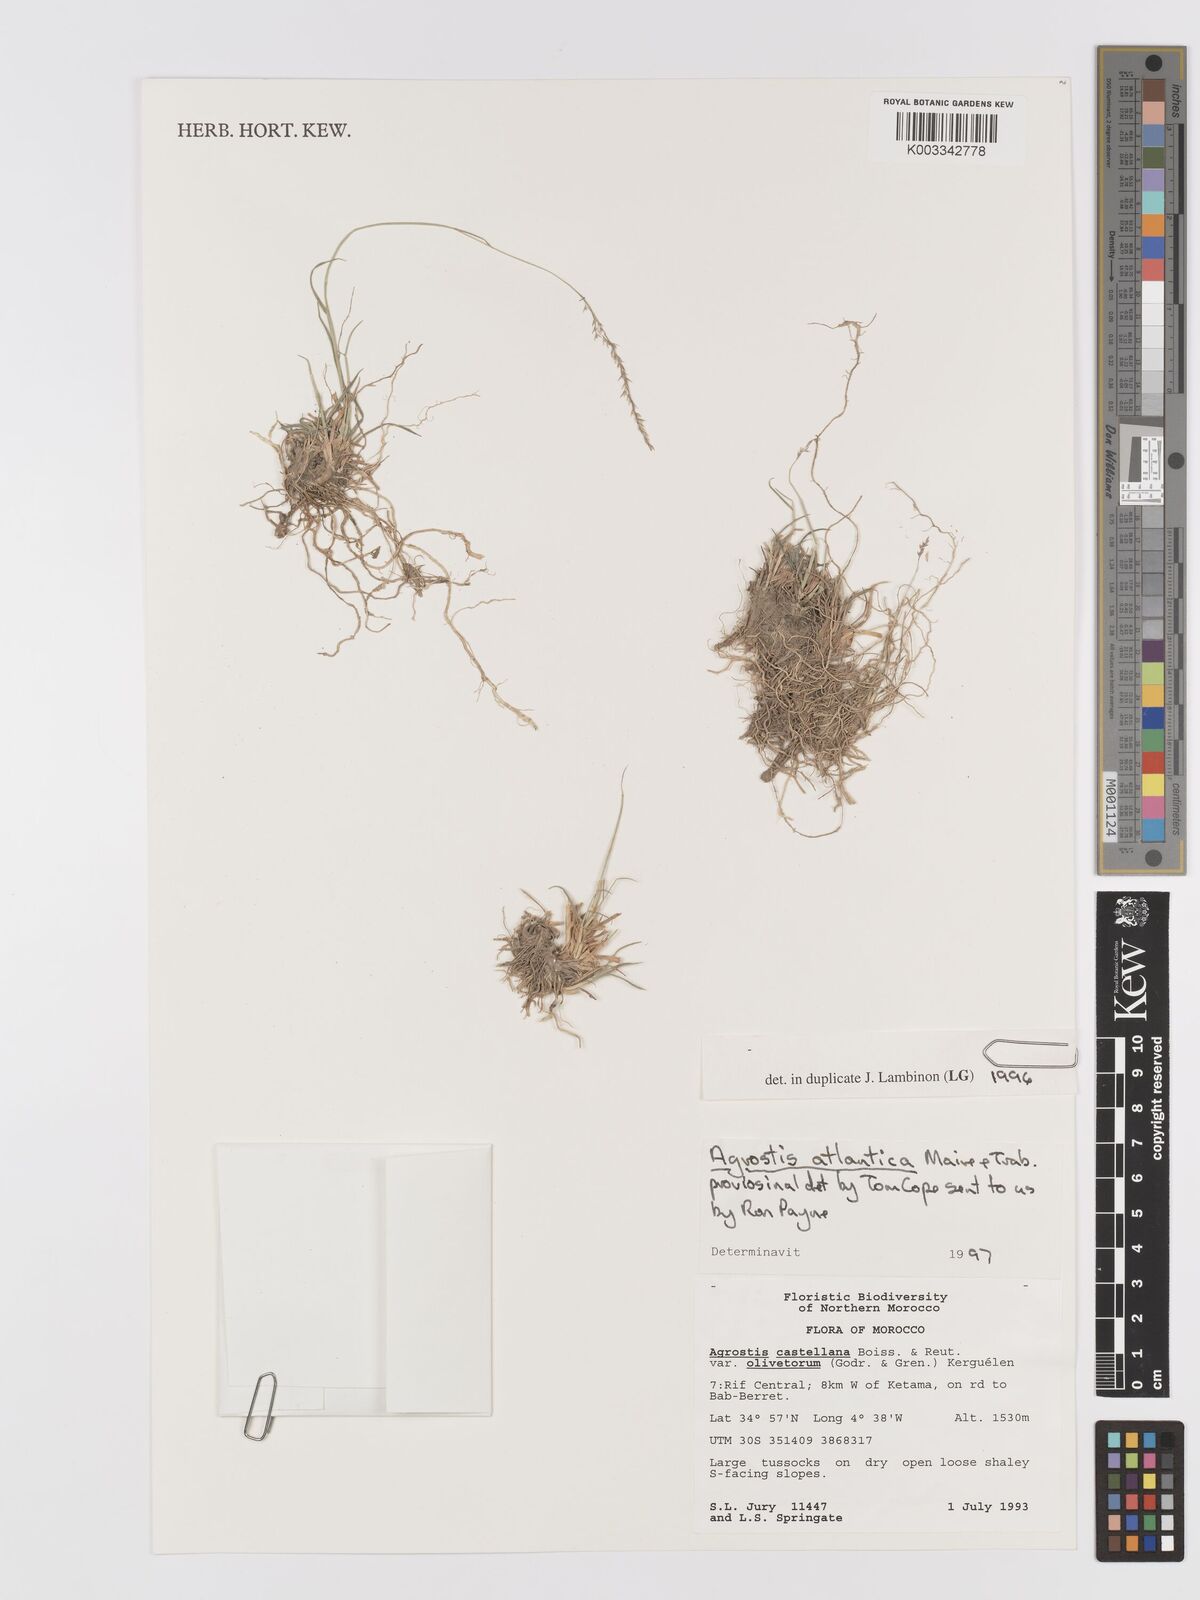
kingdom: Plantae
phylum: Tracheophyta
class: Liliopsida
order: Poales
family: Poaceae
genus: Agrostis
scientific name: Agrostis castellana
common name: Highland bent
